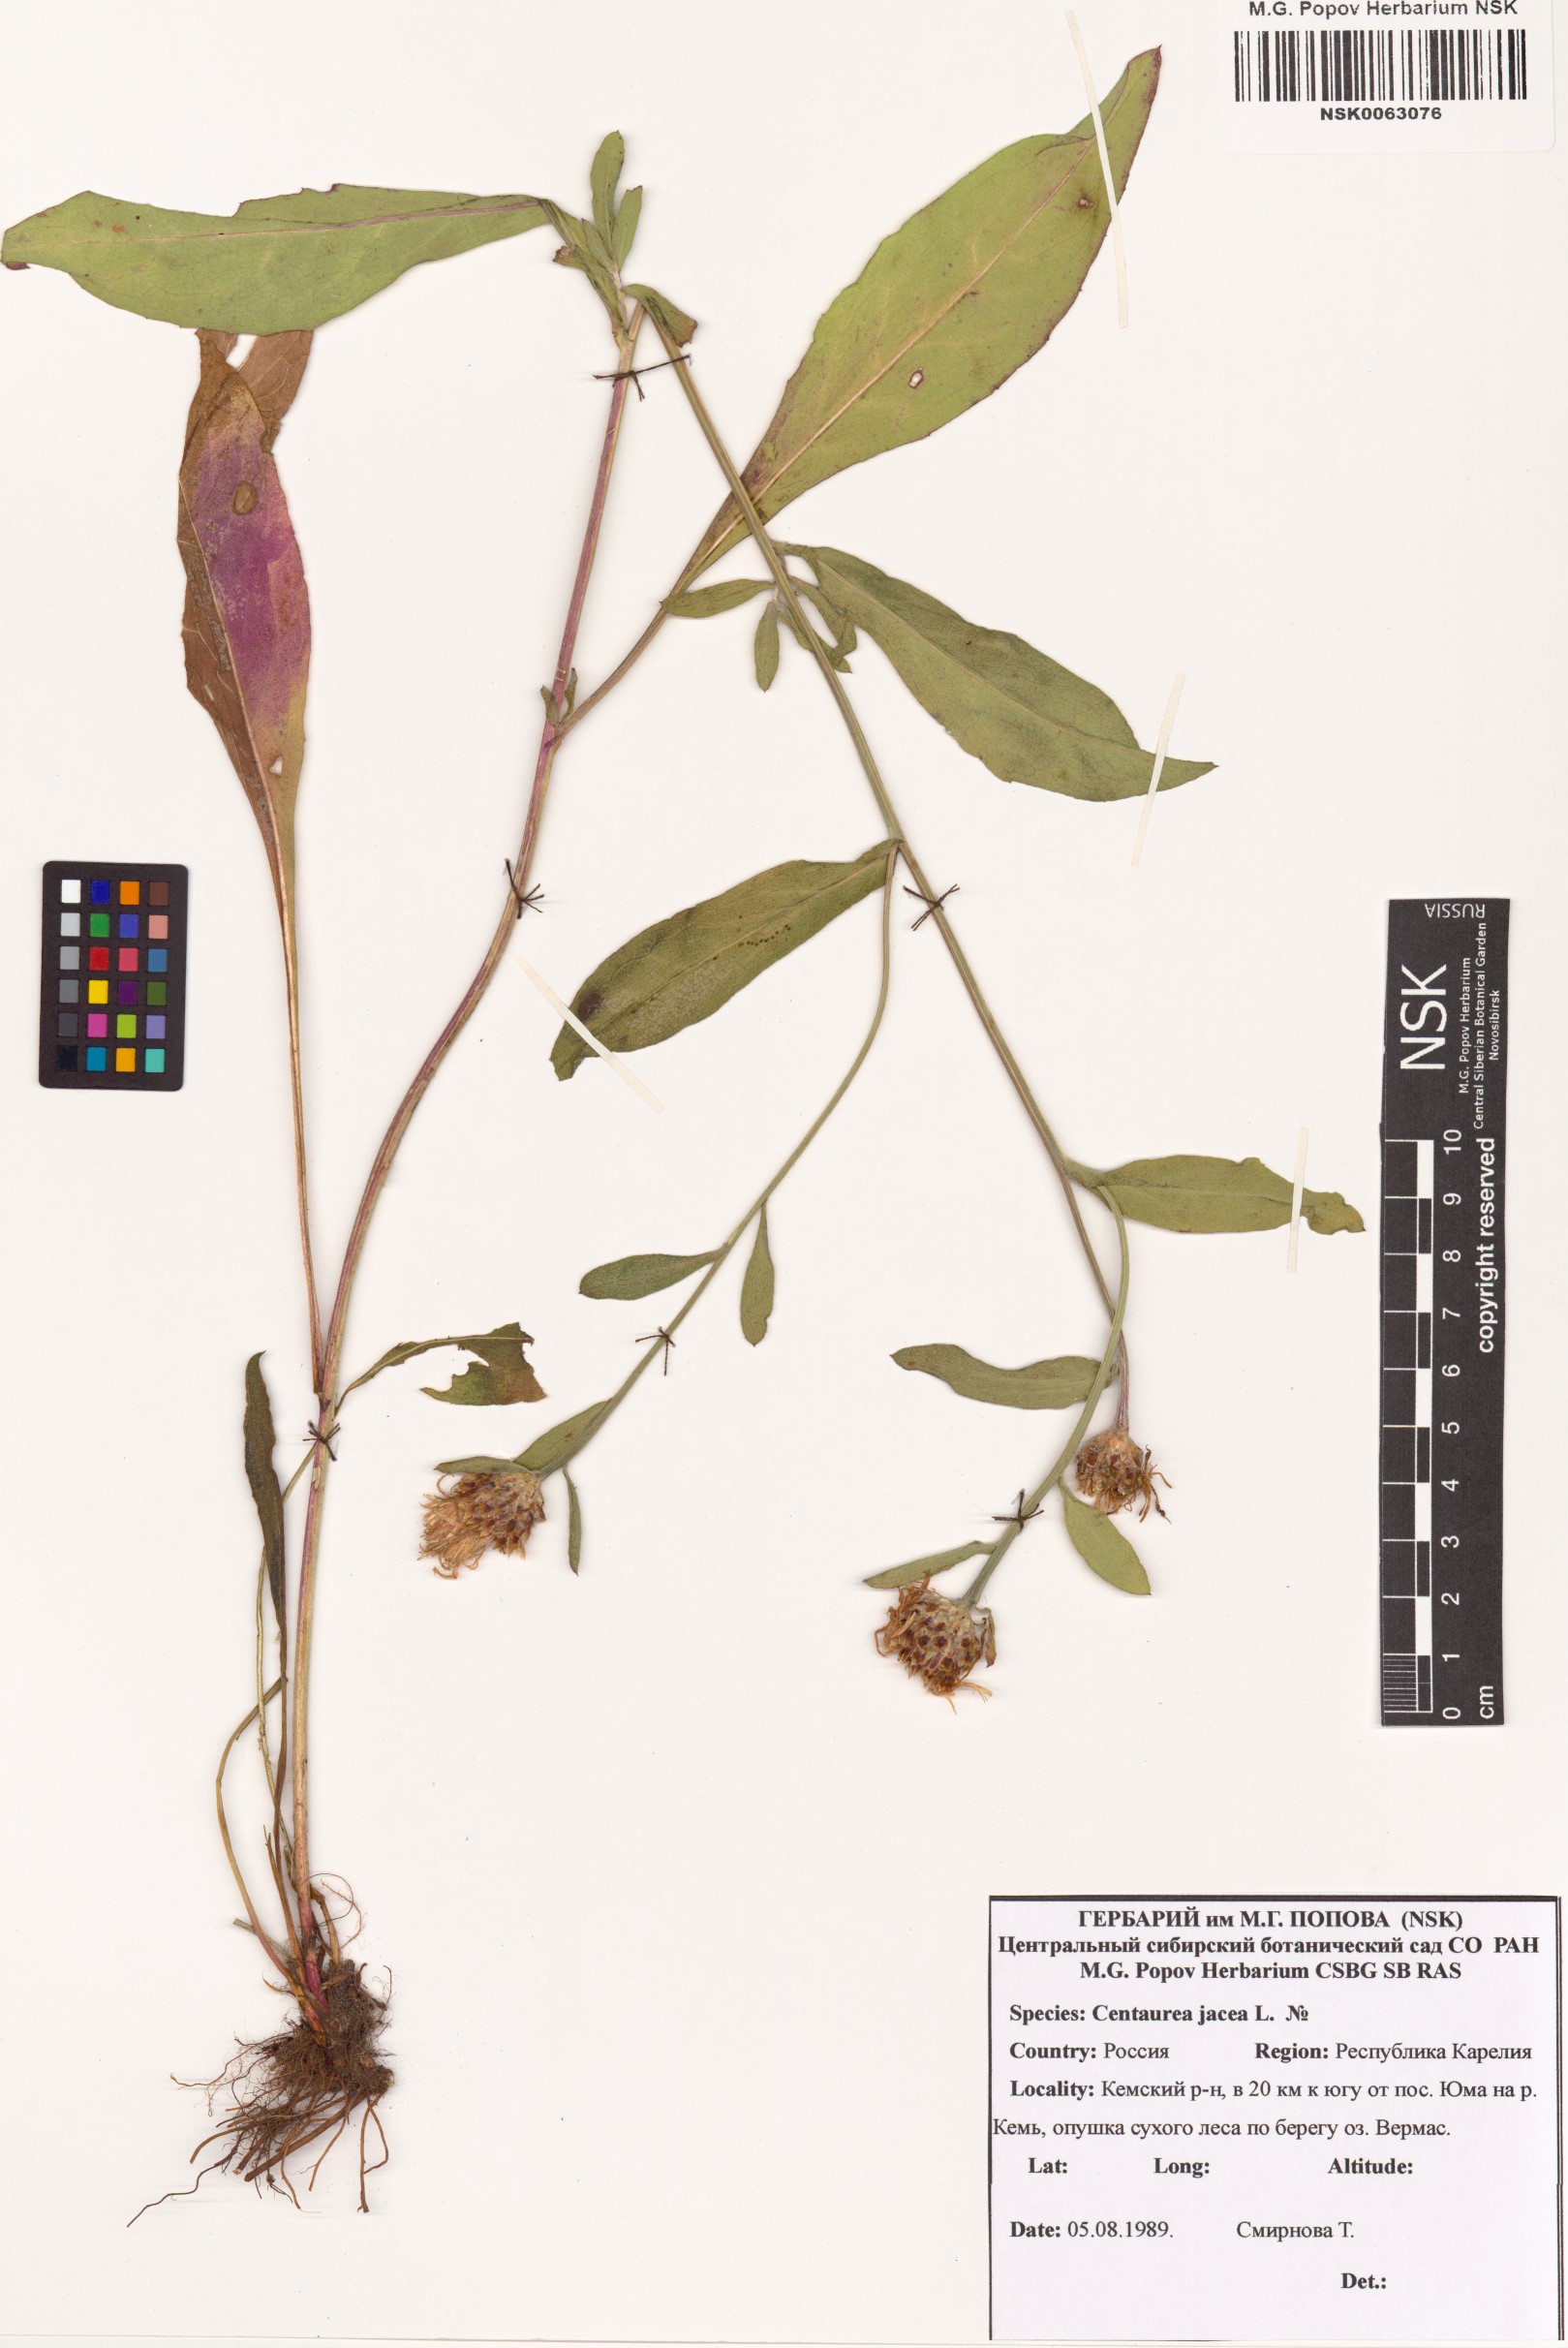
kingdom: Plantae
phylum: Tracheophyta
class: Magnoliopsida
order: Asterales
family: Asteraceae
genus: Centaurea
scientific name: Centaurea jacea
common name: Brown knapweed
